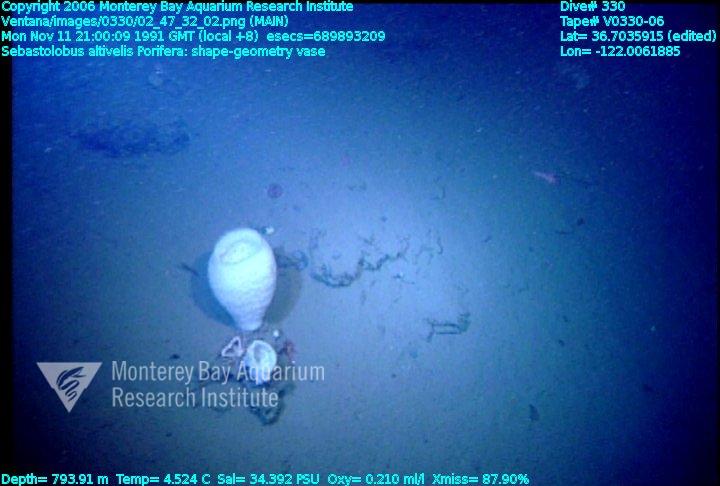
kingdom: Animalia
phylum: Porifera
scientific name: Porifera
